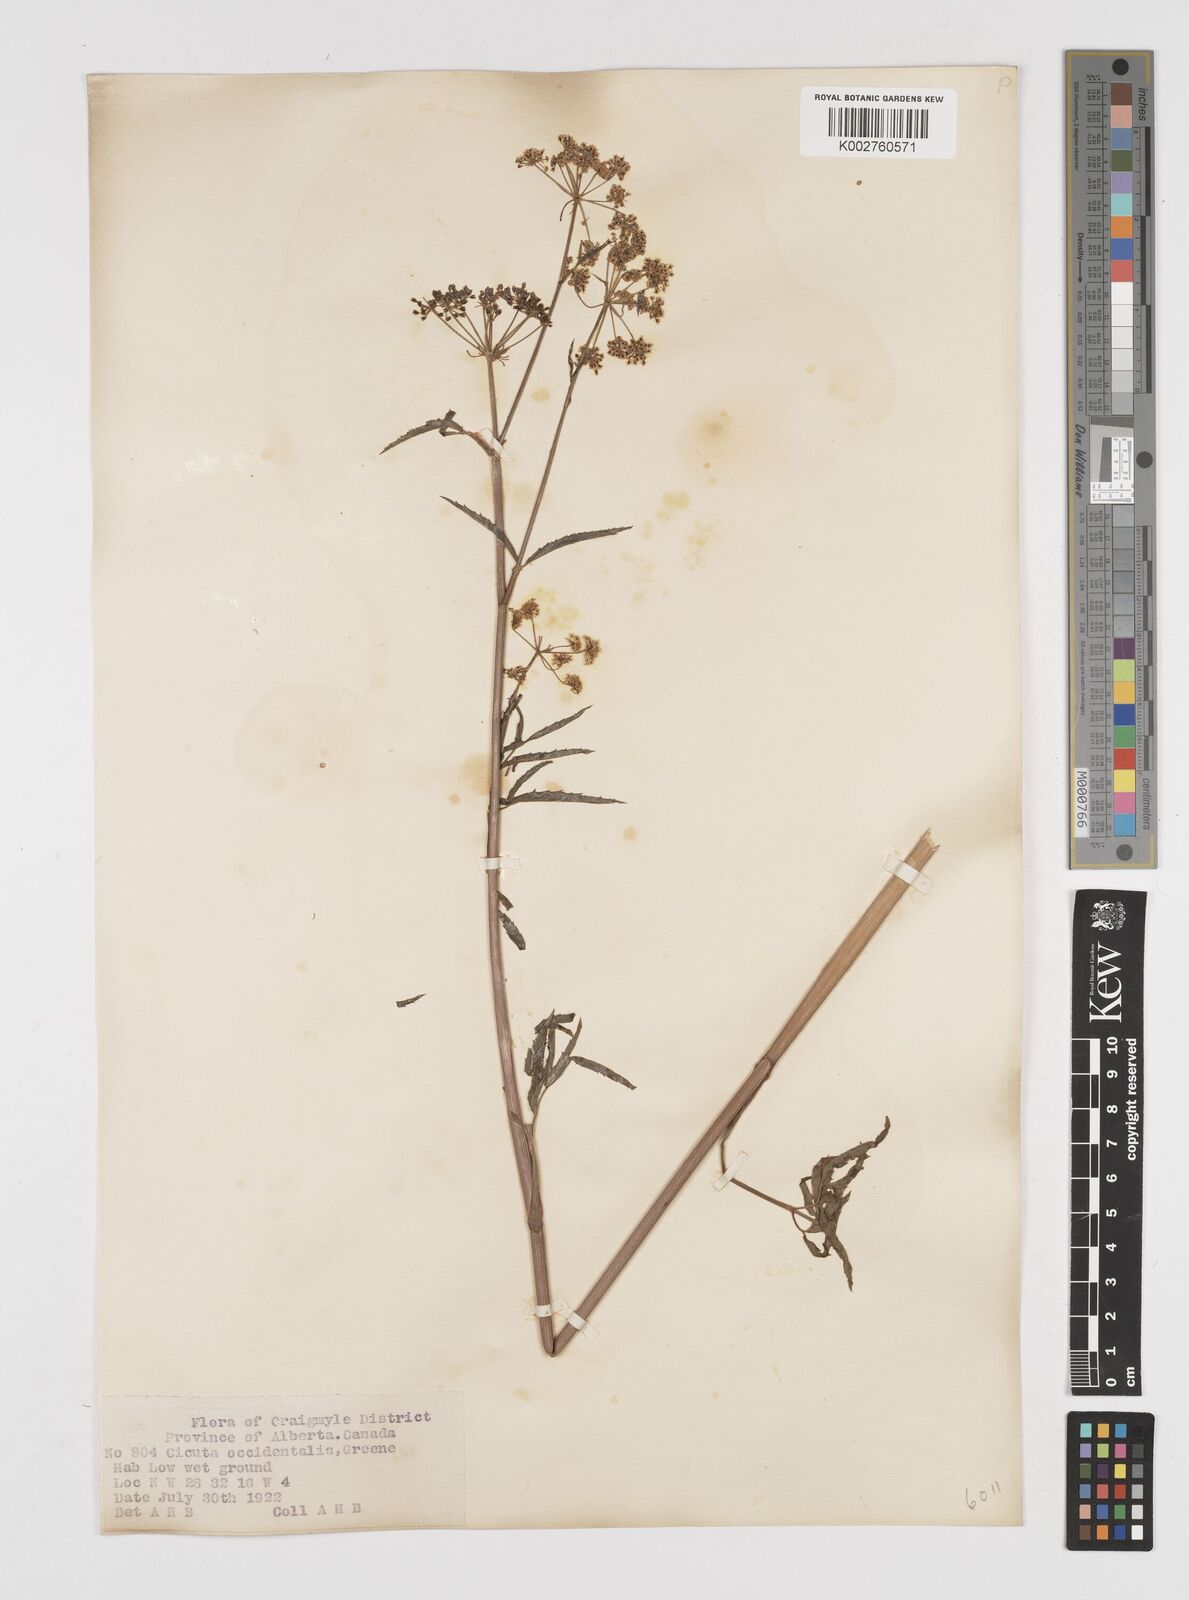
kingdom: Plantae
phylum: Tracheophyta
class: Magnoliopsida
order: Apiales
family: Apiaceae
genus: Cicuta
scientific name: Cicuta douglasii
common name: Western water-hemlock
